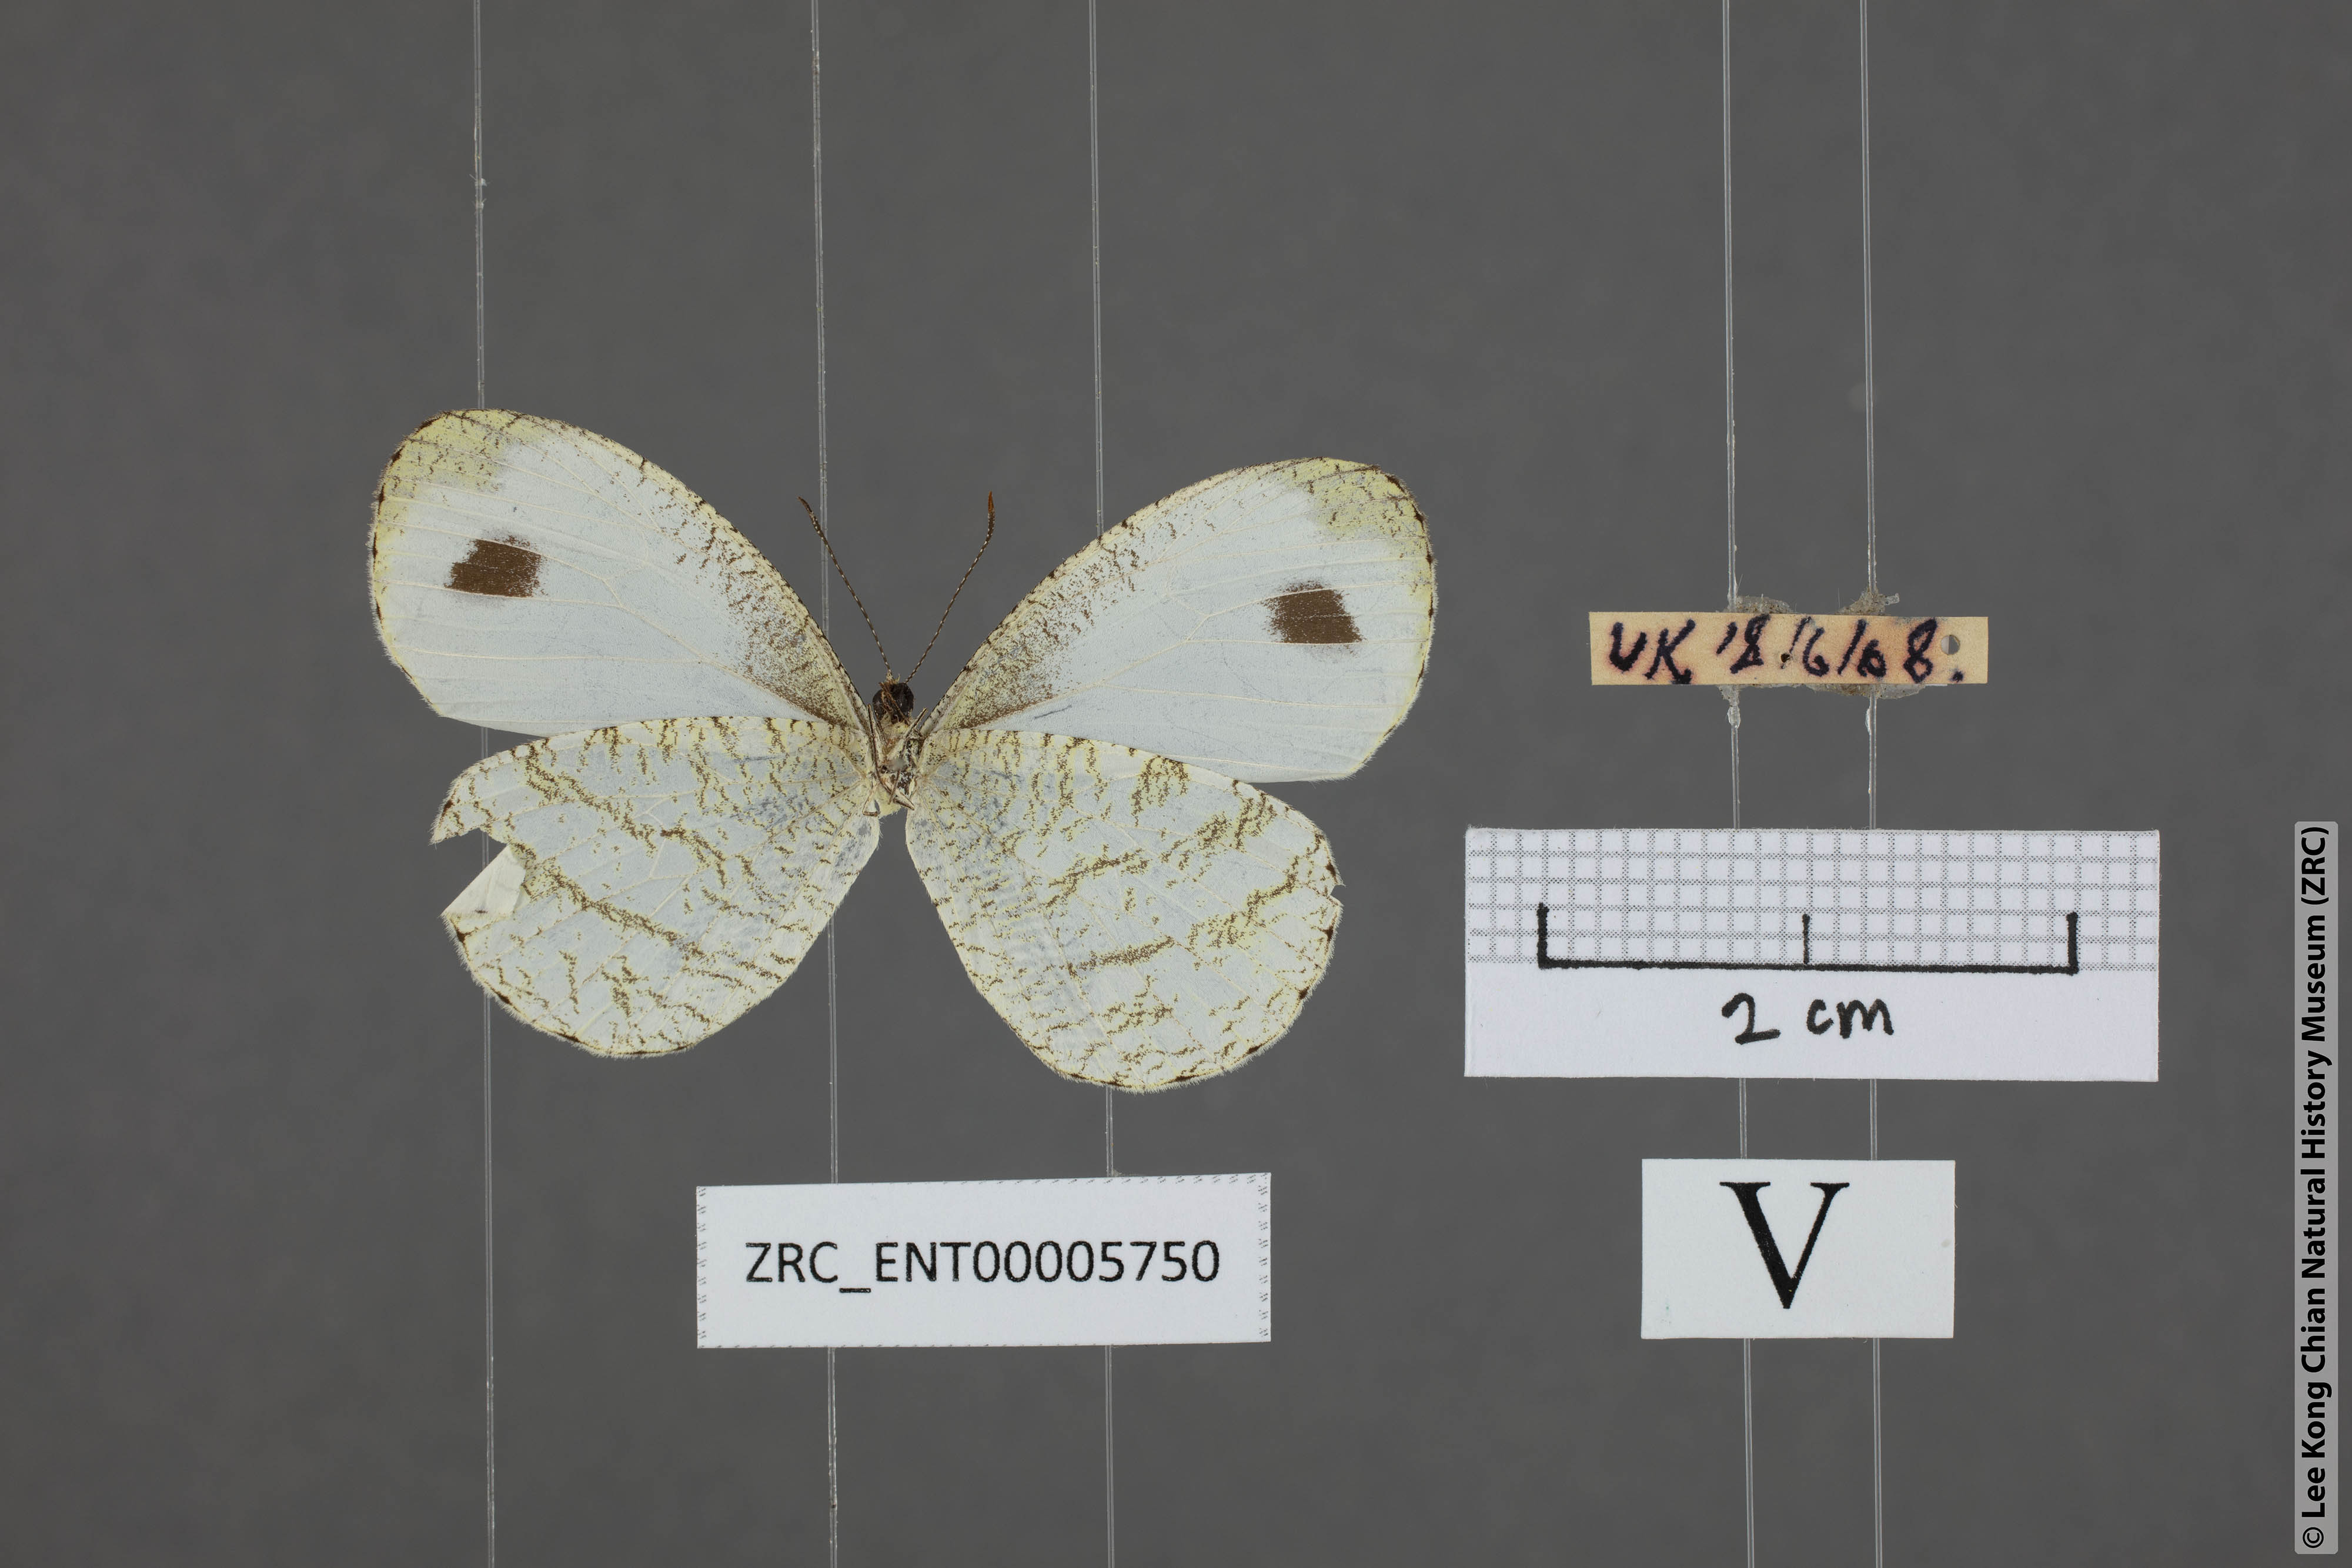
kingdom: Animalia
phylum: Arthropoda
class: Insecta
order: Lepidoptera
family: Pieridae
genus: Leptosia
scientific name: Leptosia nina
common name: Psyche
